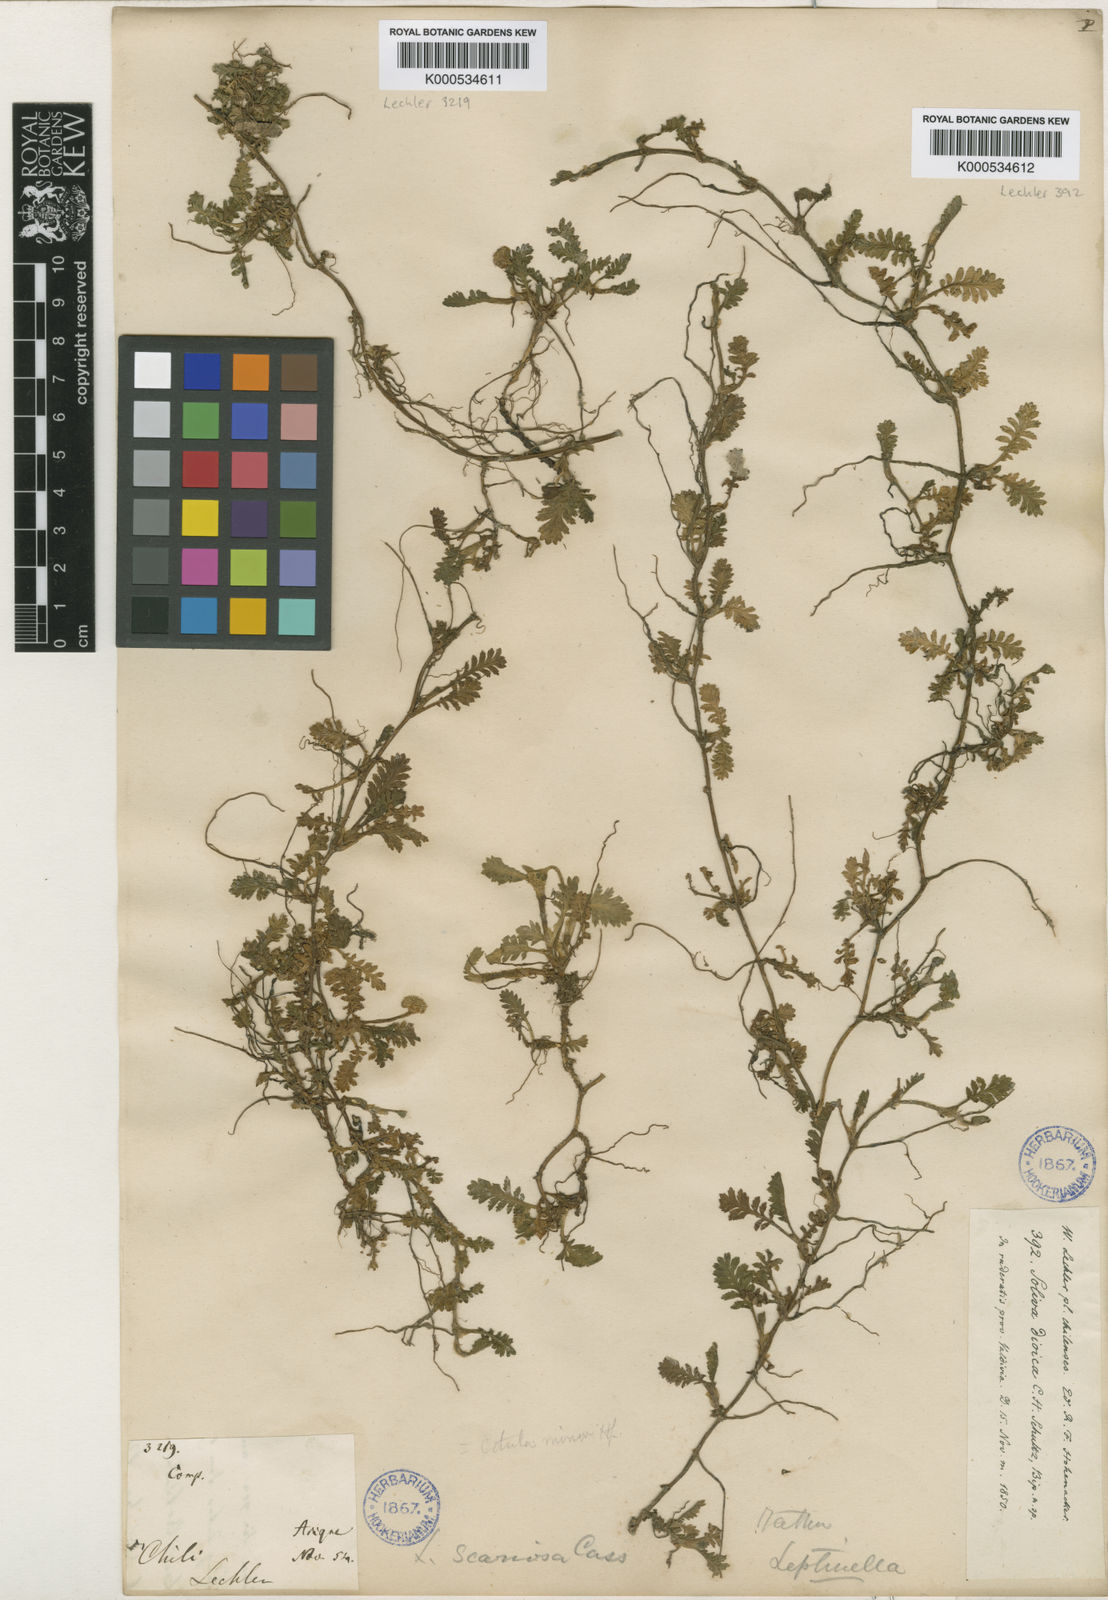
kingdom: Plantae
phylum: Tracheophyta
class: Magnoliopsida
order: Asterales
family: Asteraceae
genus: Leptinella
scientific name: Leptinella scariosa
